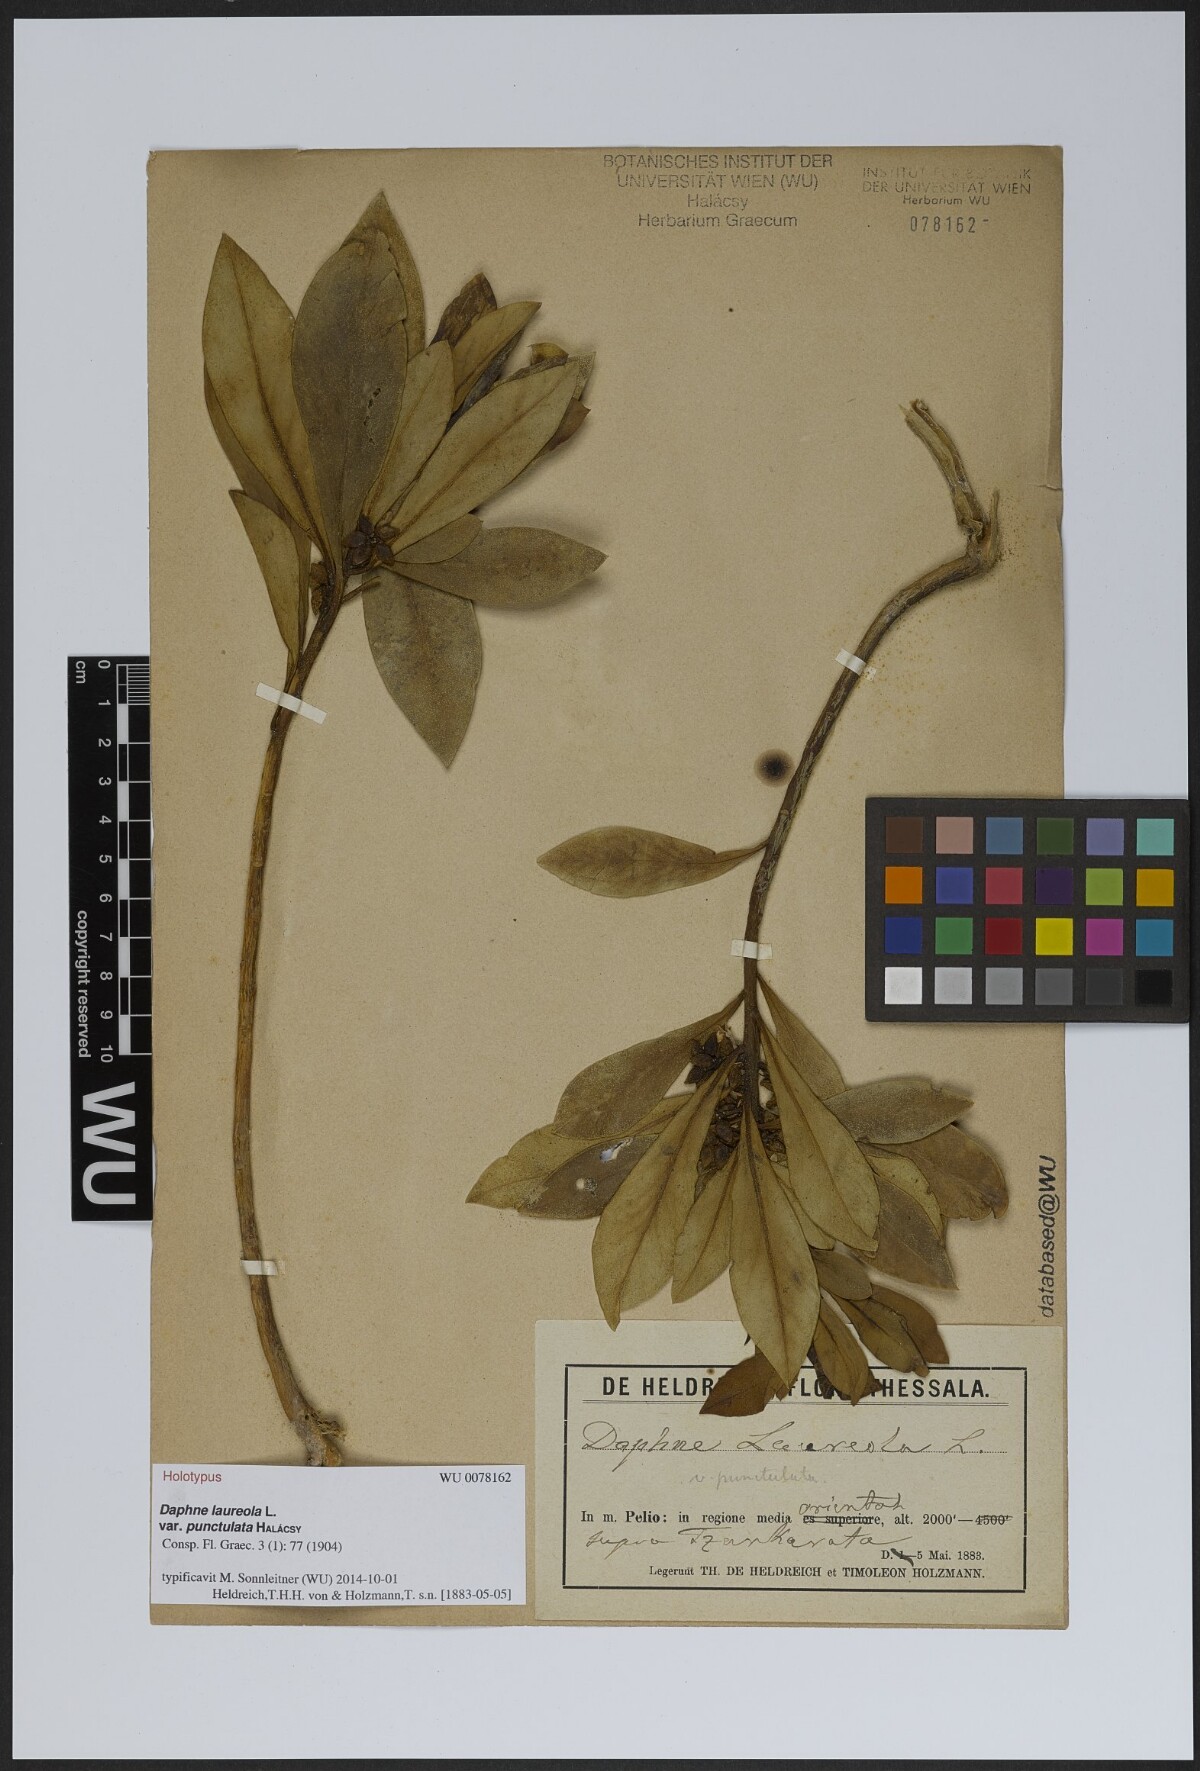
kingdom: Plantae
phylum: Tracheophyta
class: Magnoliopsida
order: Malvales
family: Thymelaeaceae
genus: Daphne
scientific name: Daphne laureola
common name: Spurge-laurel
